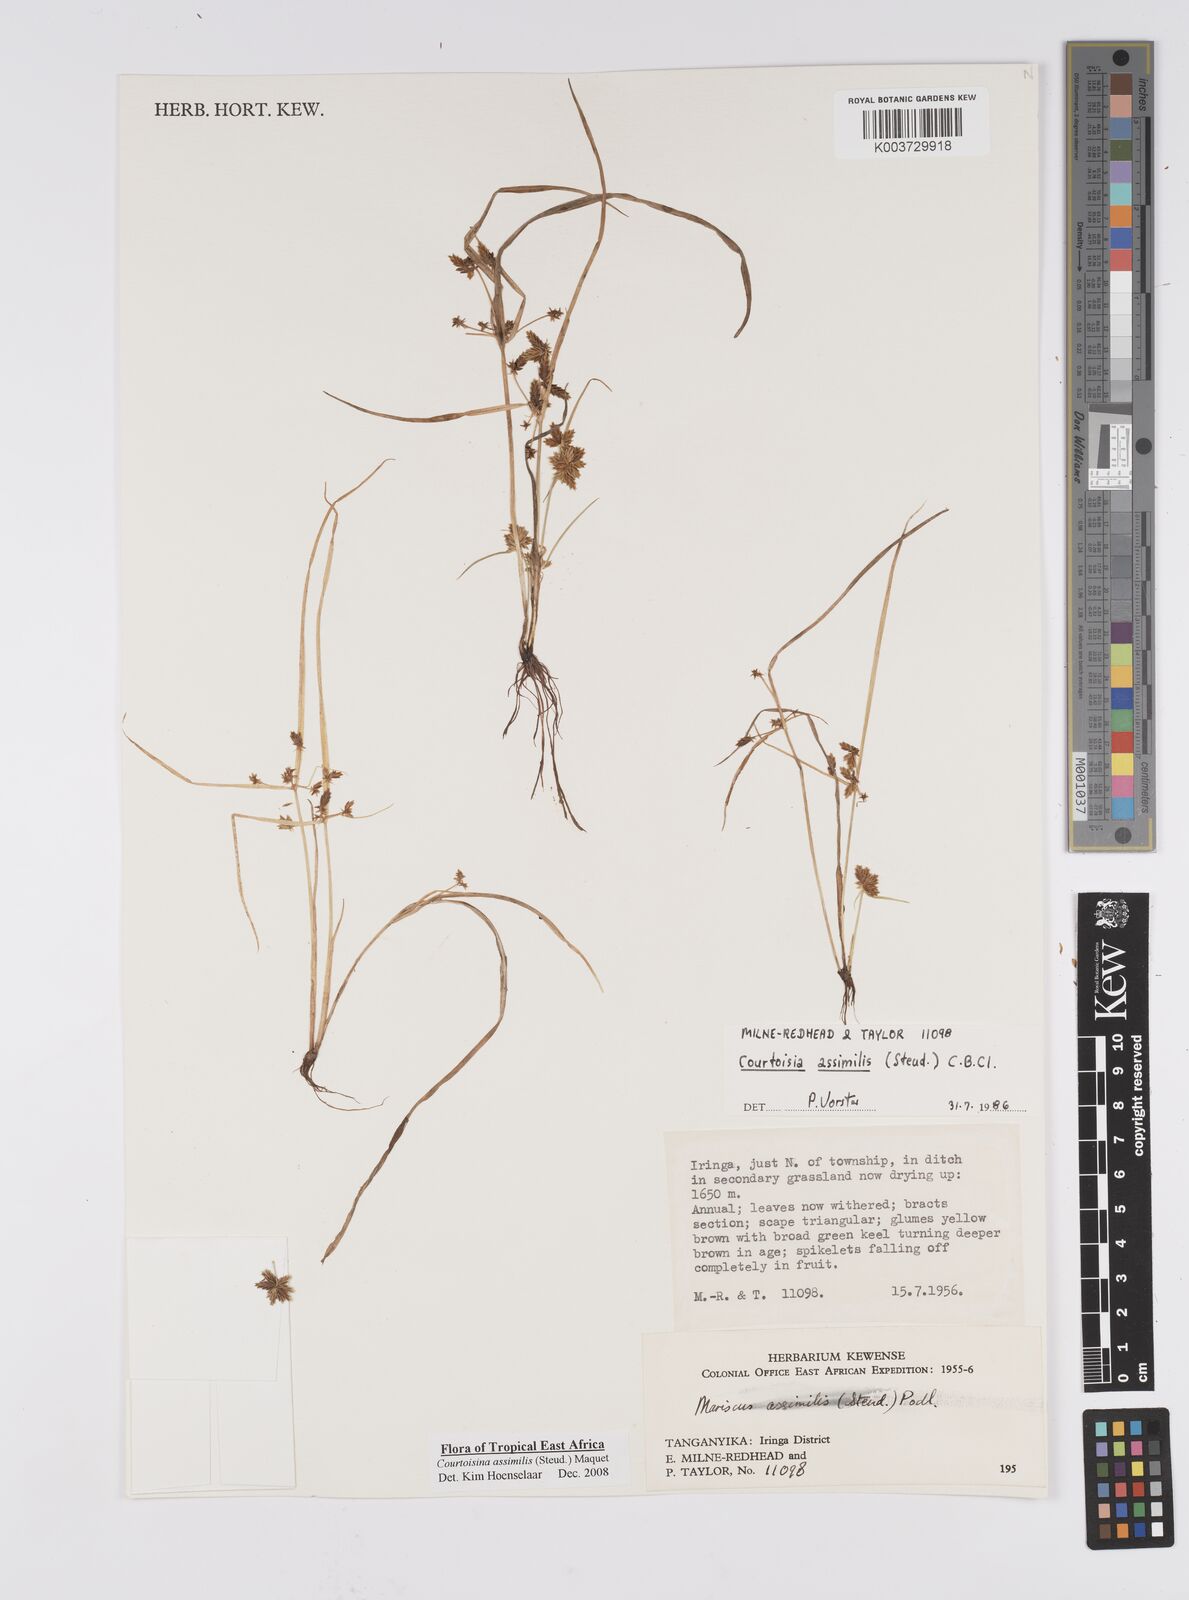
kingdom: Plantae
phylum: Tracheophyta
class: Liliopsida
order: Poales
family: Cyperaceae
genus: Cyperus
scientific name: Cyperus assimilis
